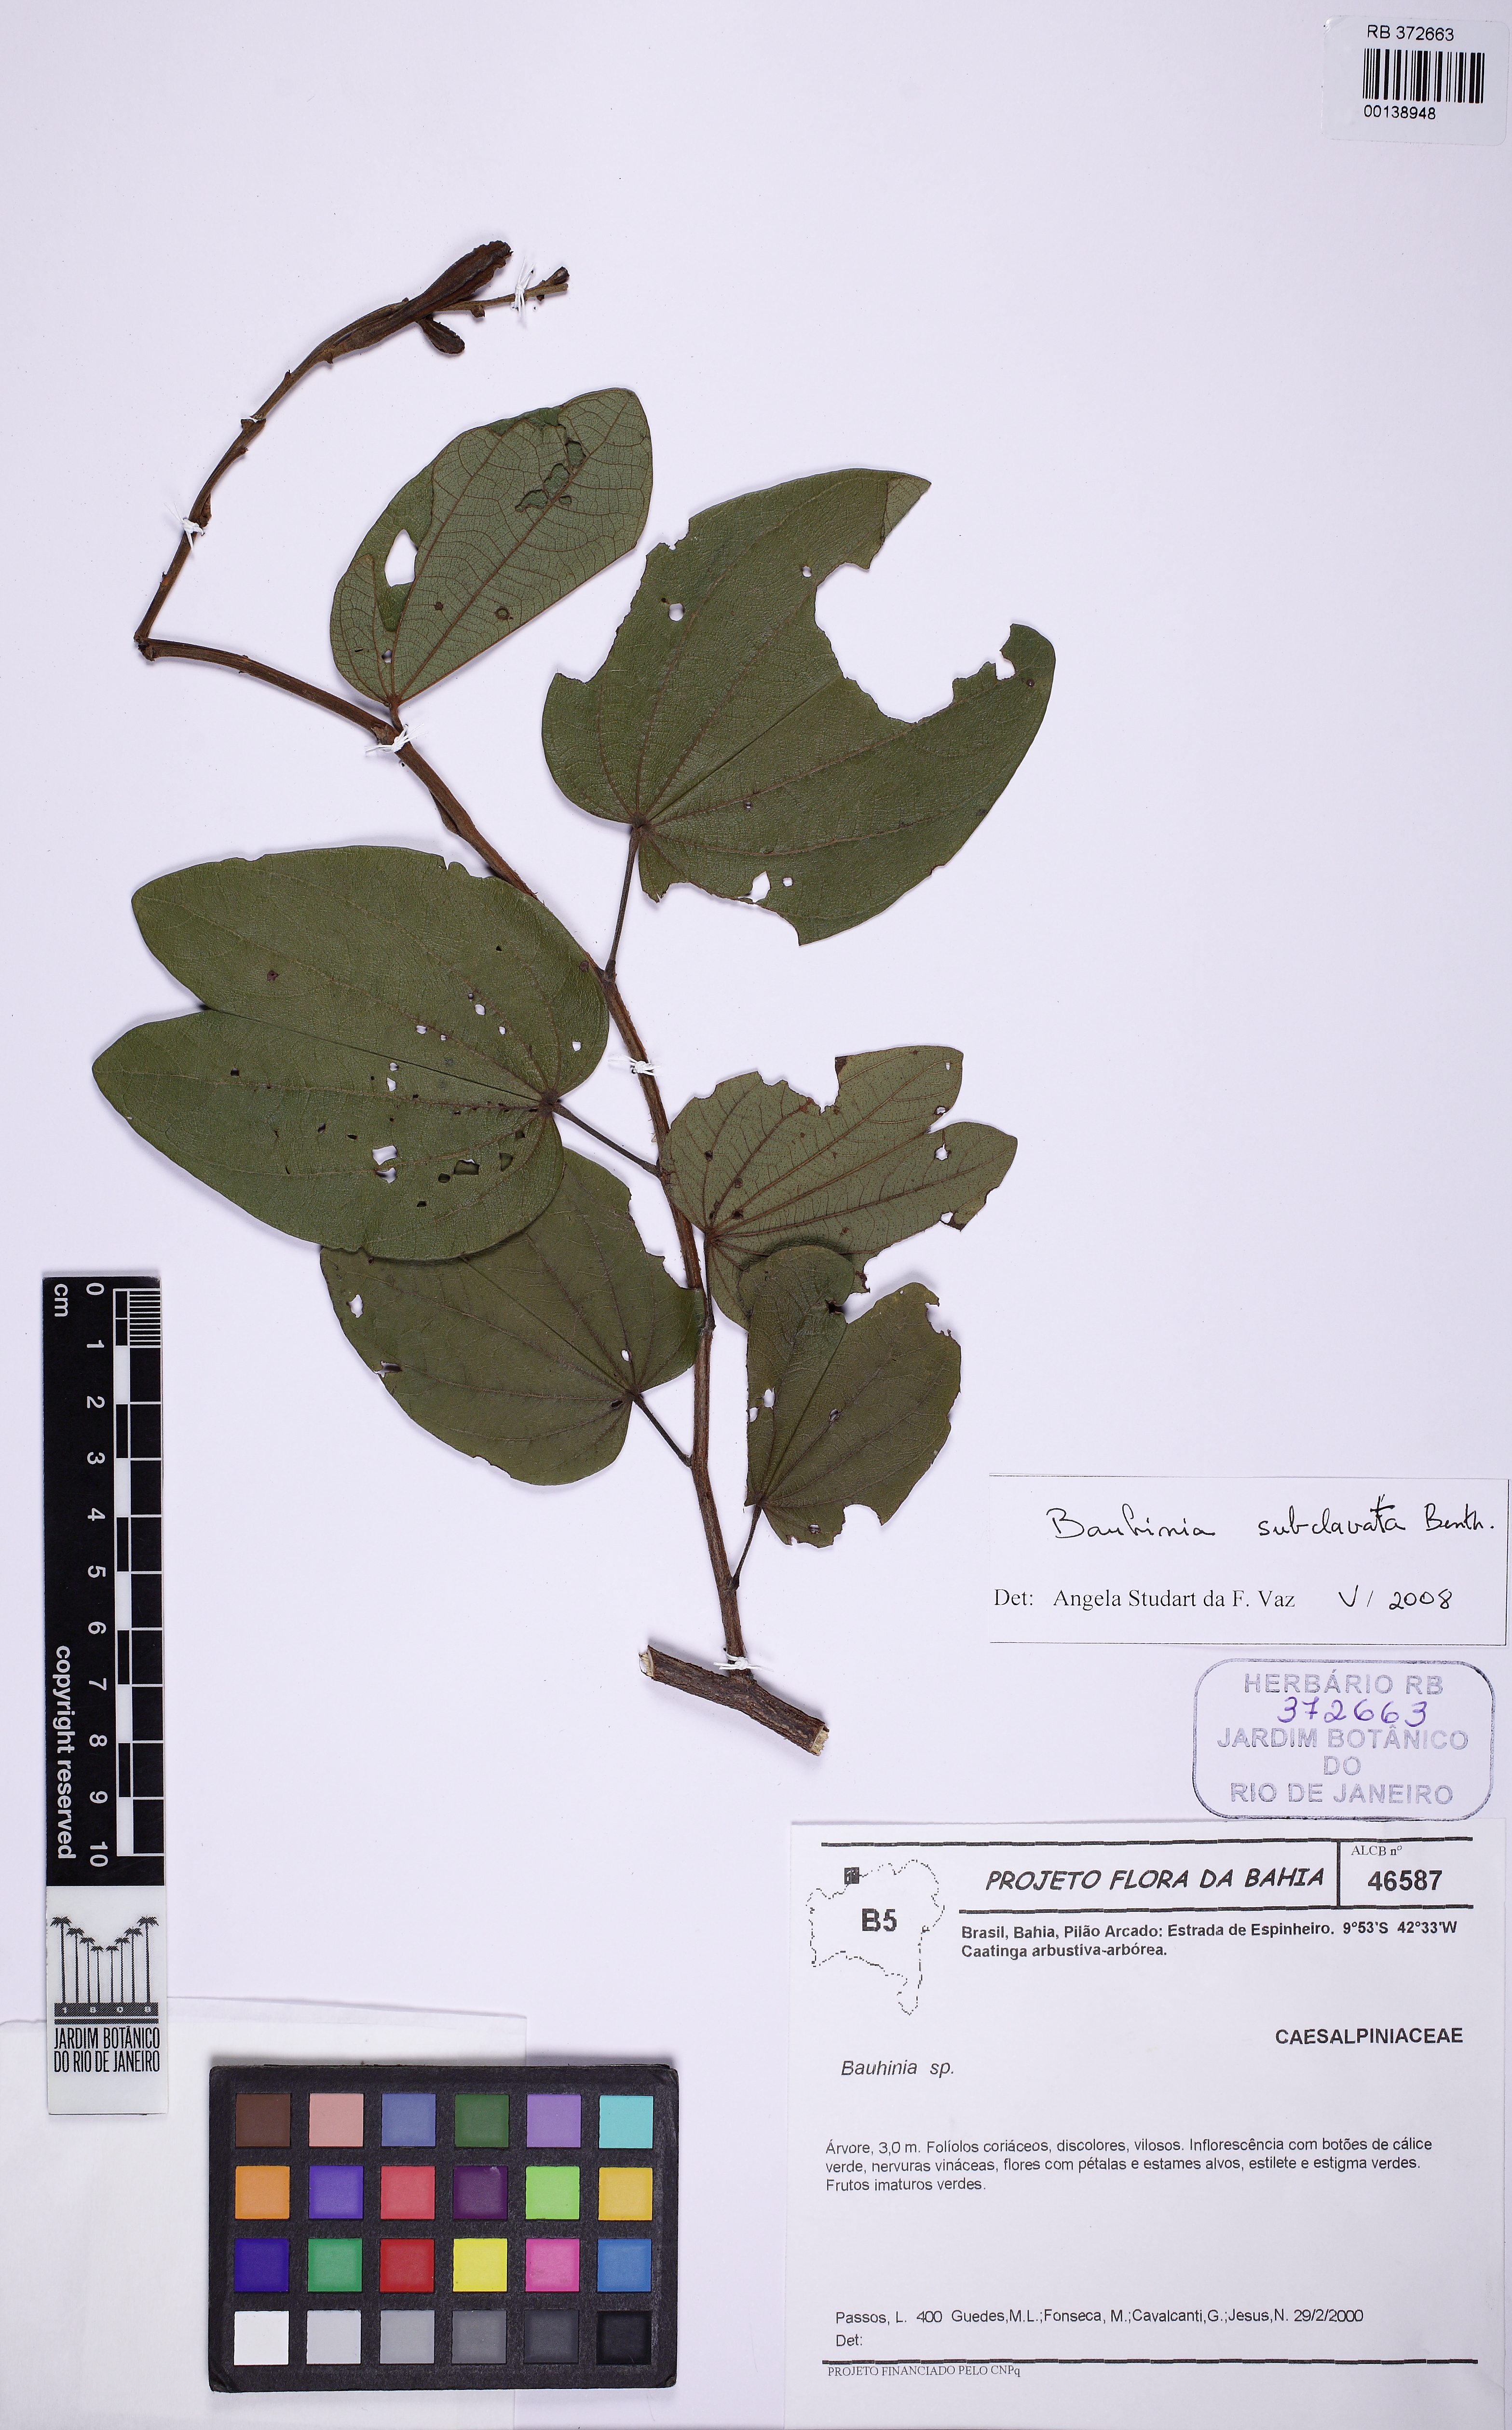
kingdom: Plantae
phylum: Tracheophyta
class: Magnoliopsida
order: Fabales
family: Fabaceae
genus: Bauhinia
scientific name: Bauhinia subclavala
